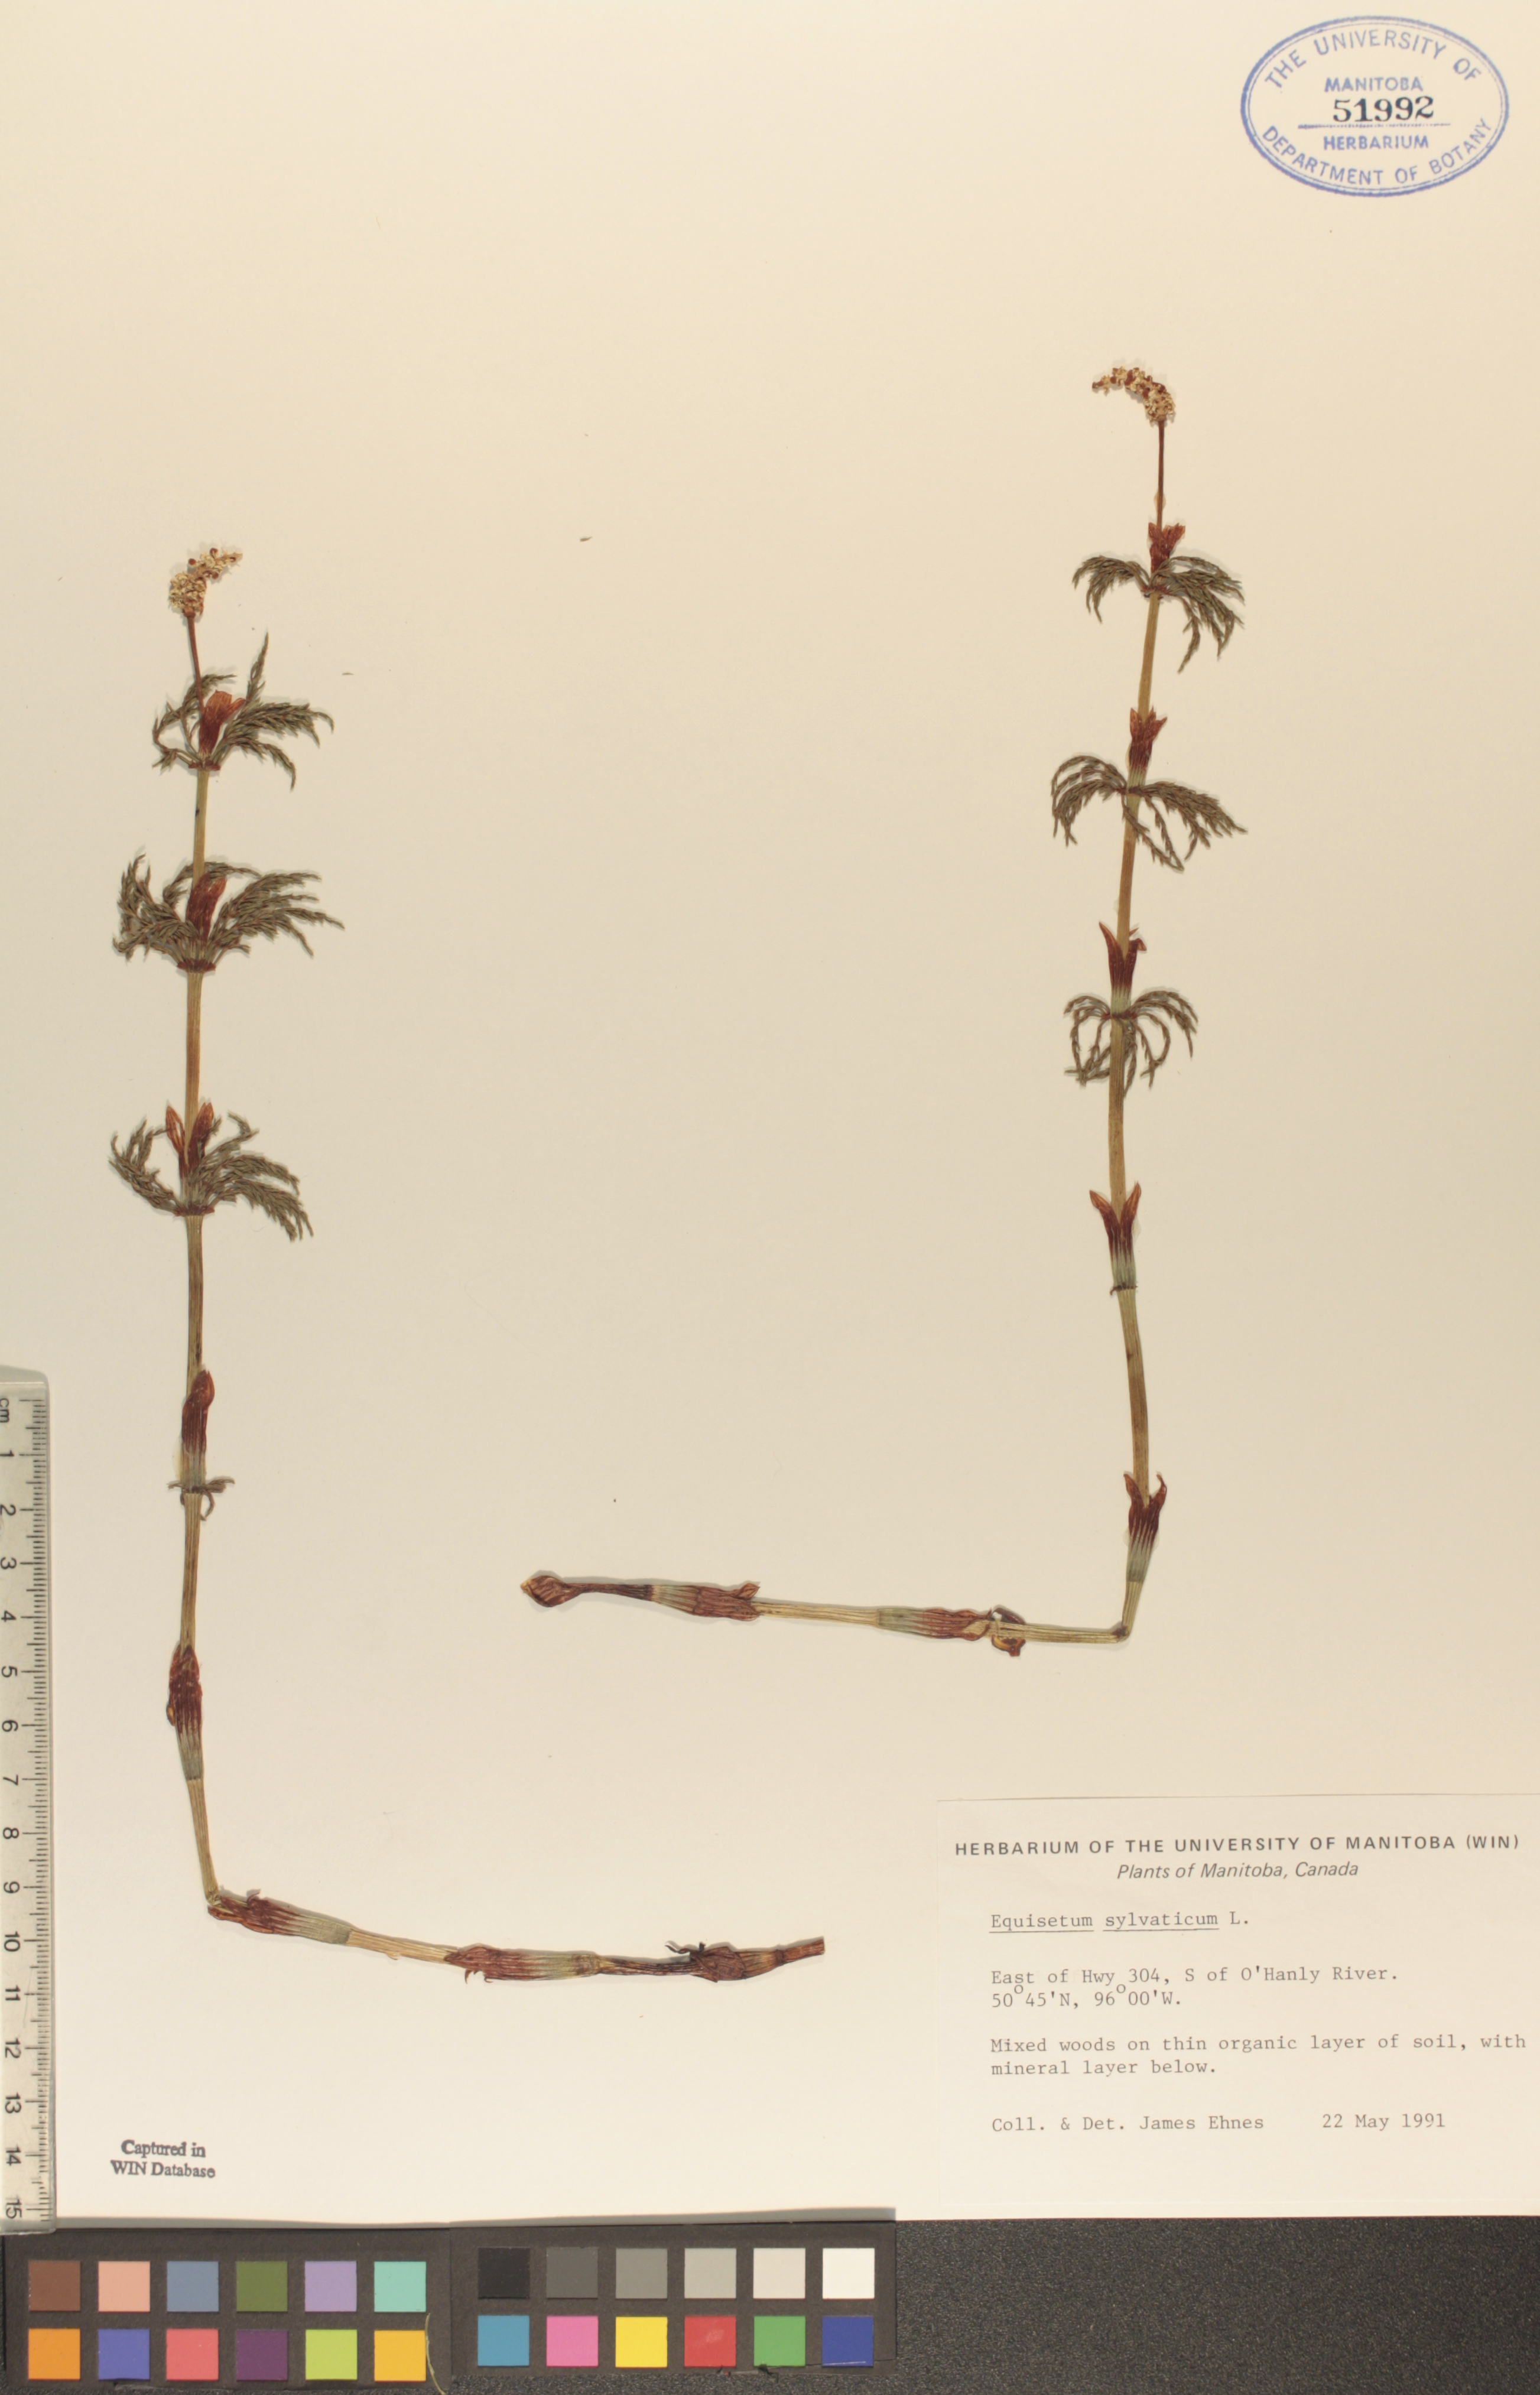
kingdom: Plantae
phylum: Tracheophyta
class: Polypodiopsida
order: Equisetales
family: Equisetaceae
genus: Equisetum
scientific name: Equisetum sylvaticum
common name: Wood horsetail
